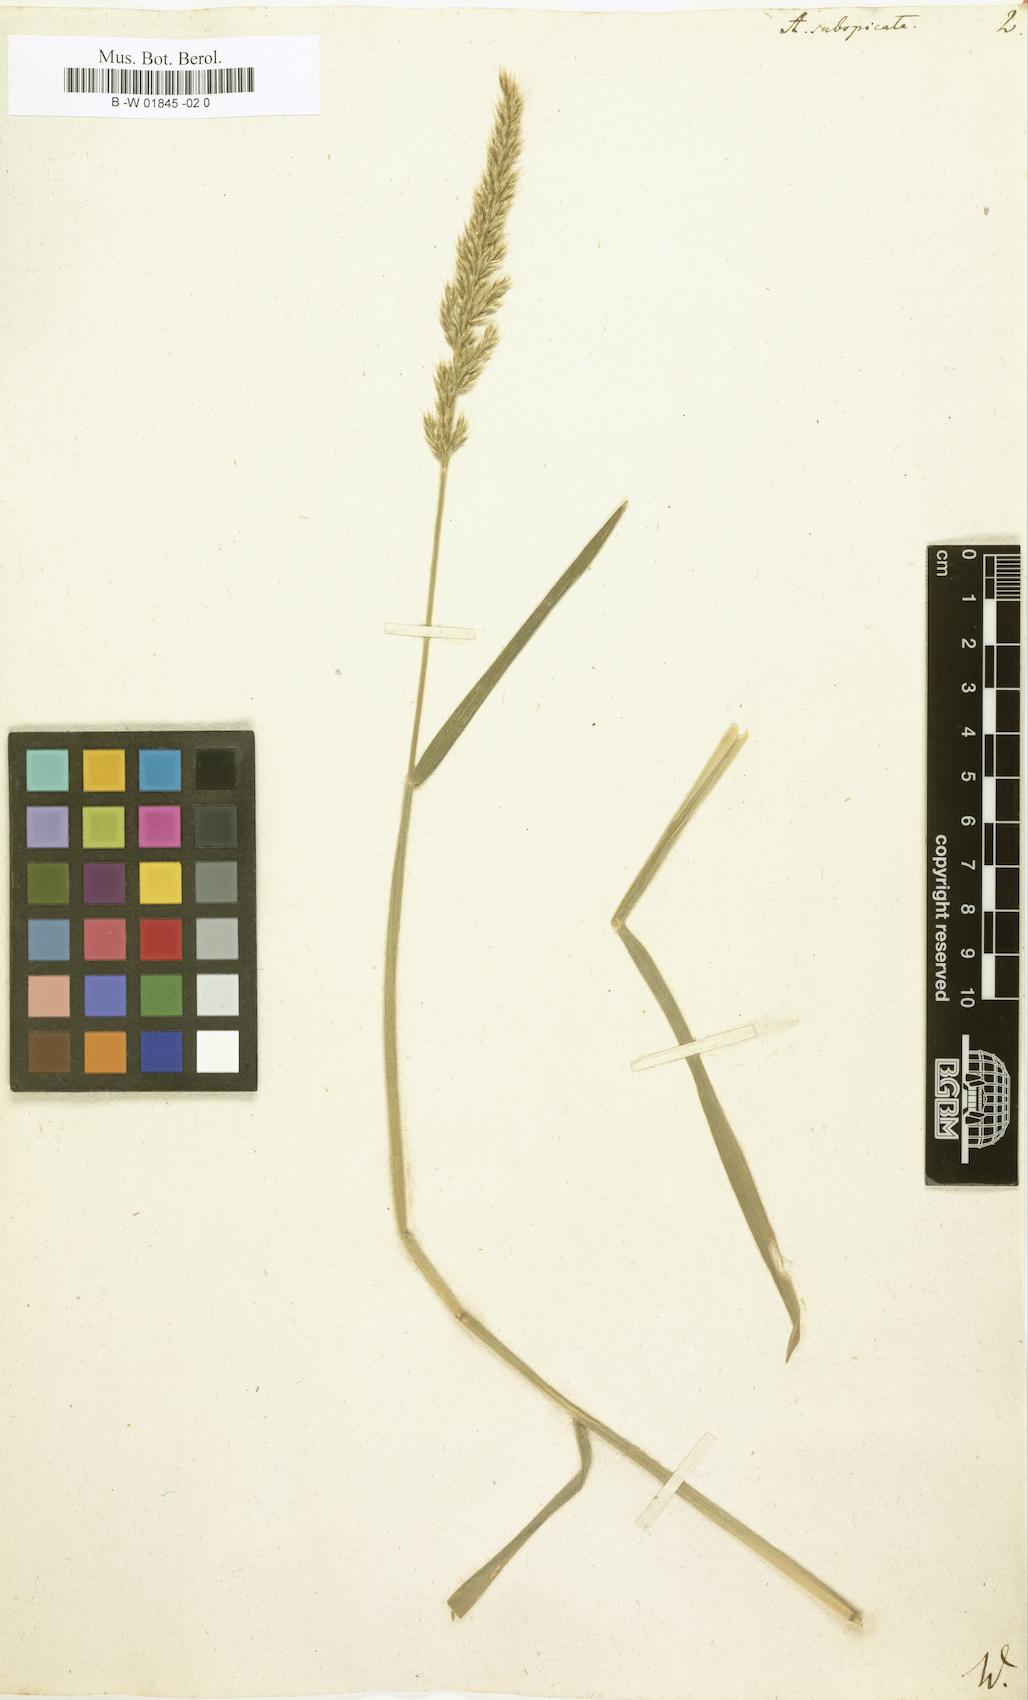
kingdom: Plantae
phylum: Tracheophyta
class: Liliopsida
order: Poales
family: Poaceae
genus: Koeleria
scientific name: Koeleria spicata
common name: Mountain trisetum
